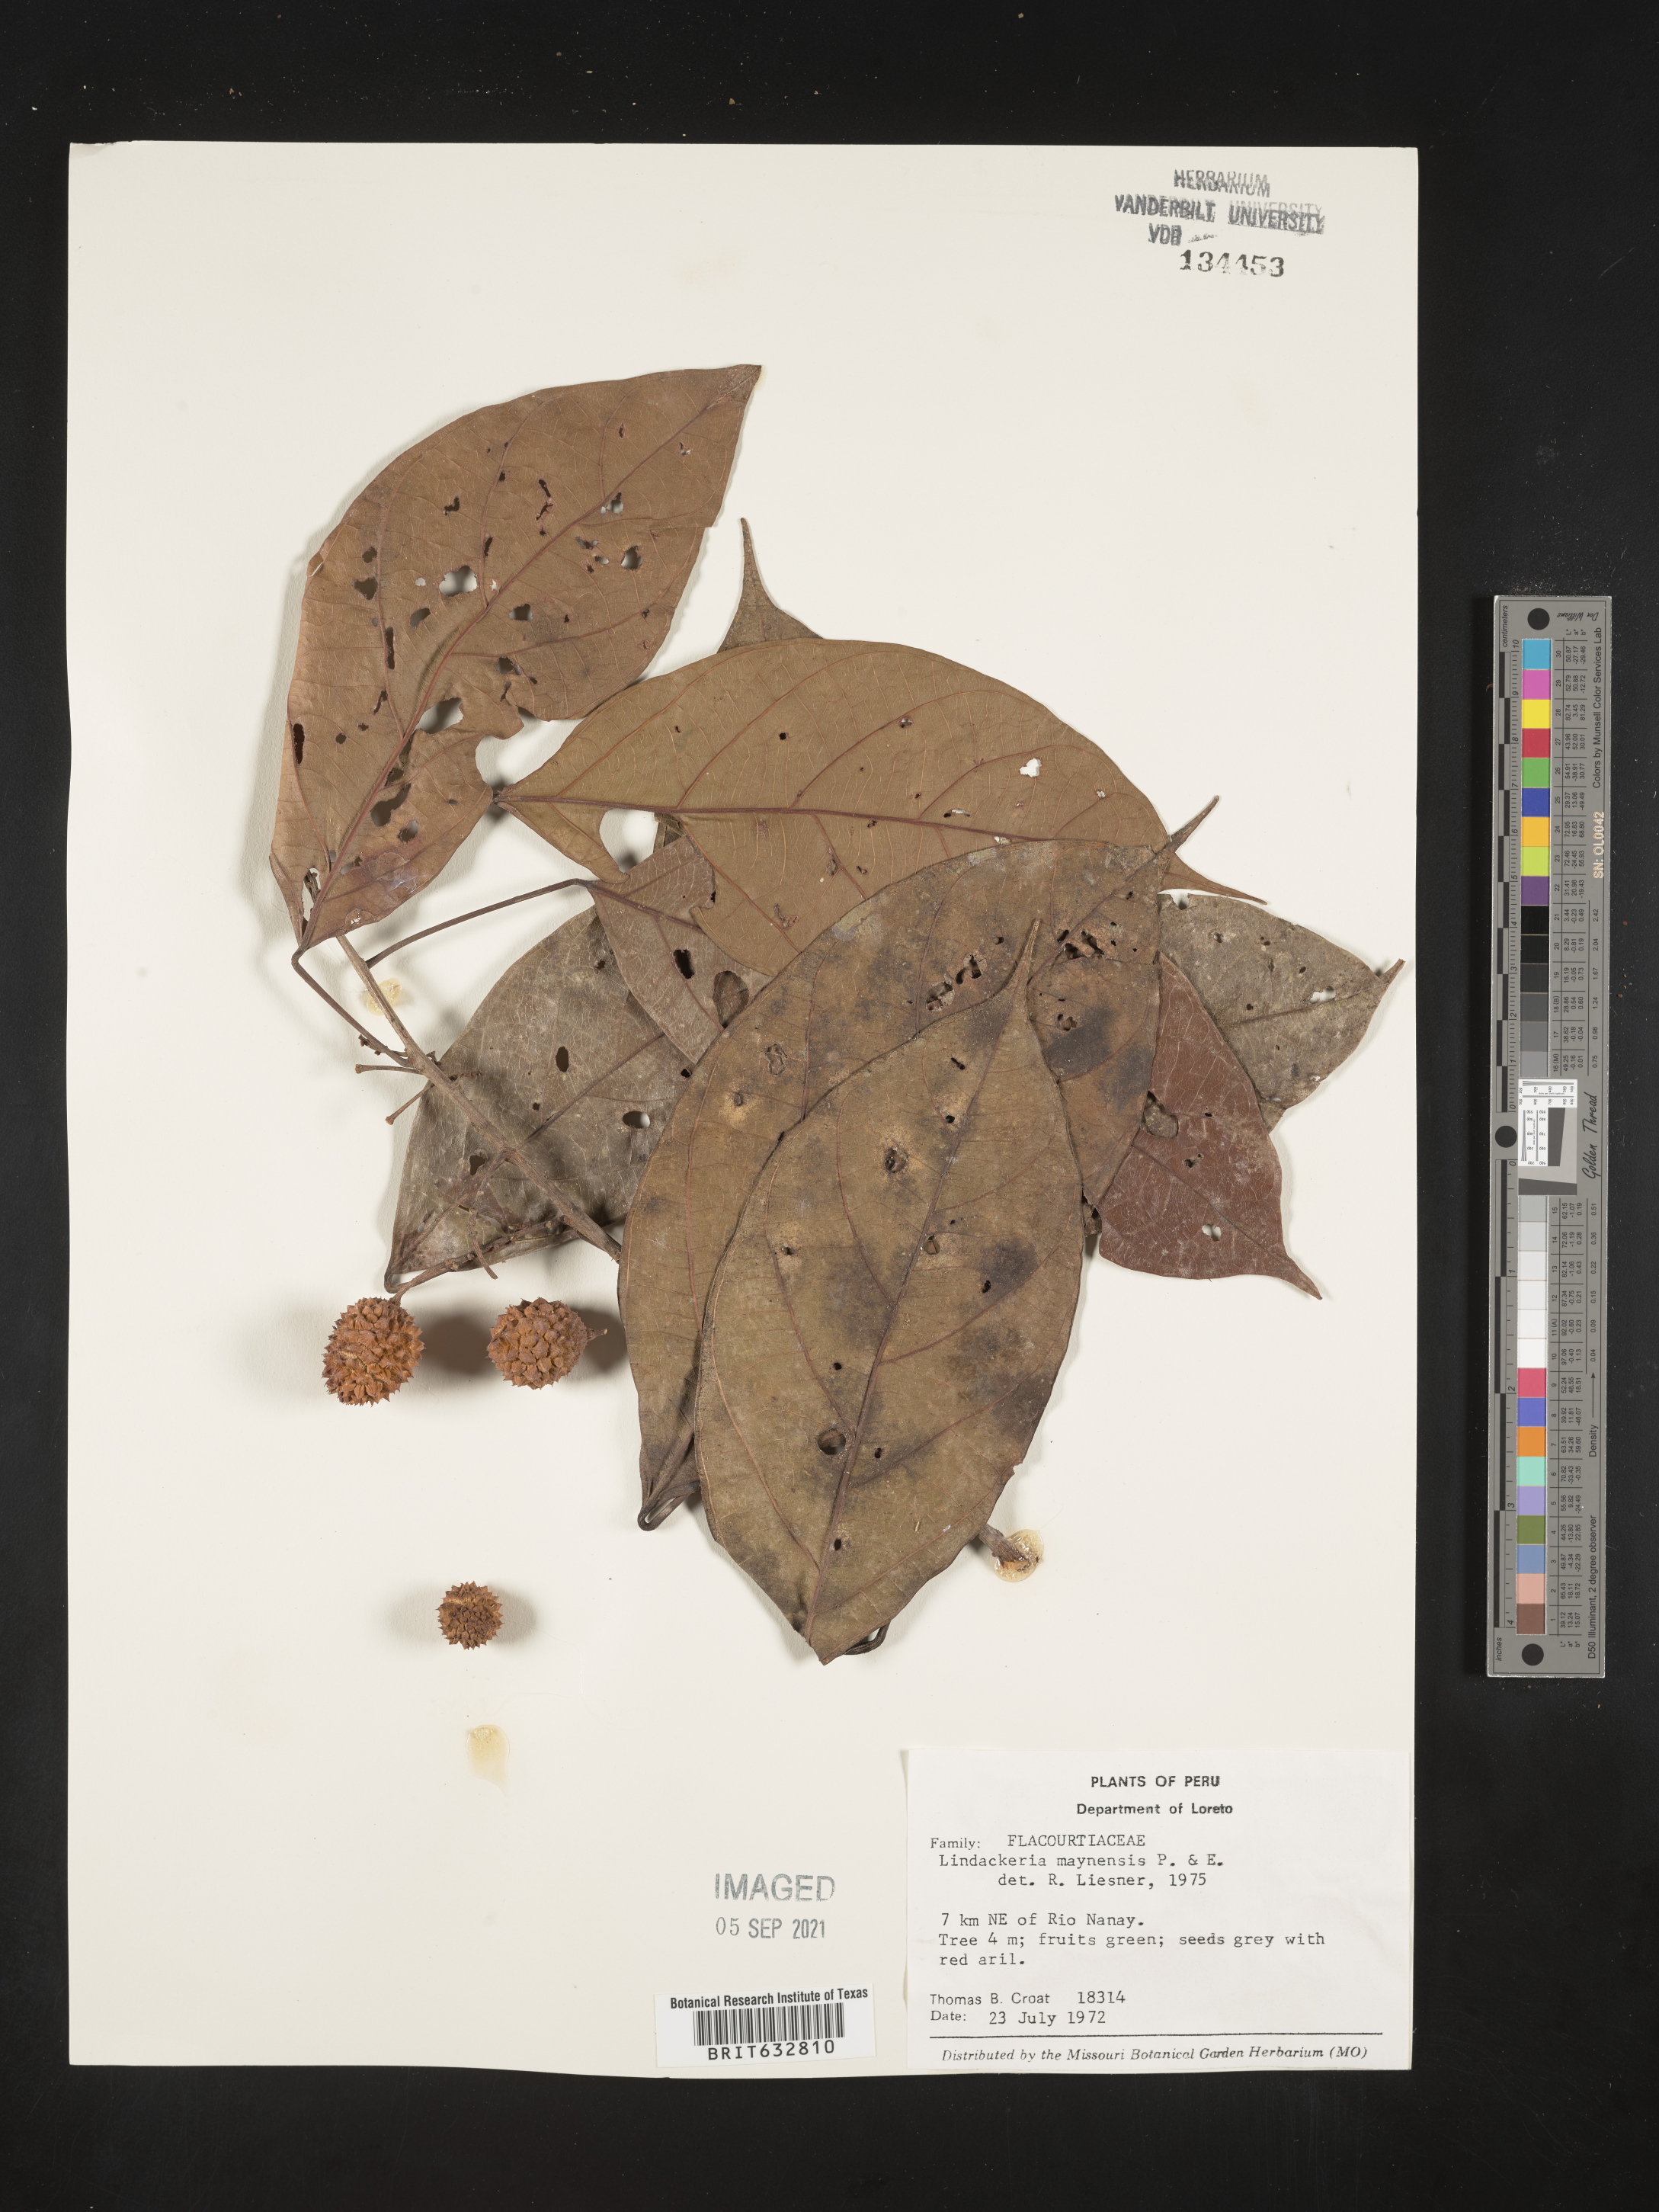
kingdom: Plantae
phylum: Tracheophyta
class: Magnoliopsida
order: Malpighiales
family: Achariaceae
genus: Lindackeria
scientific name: Lindackeria paludosa
